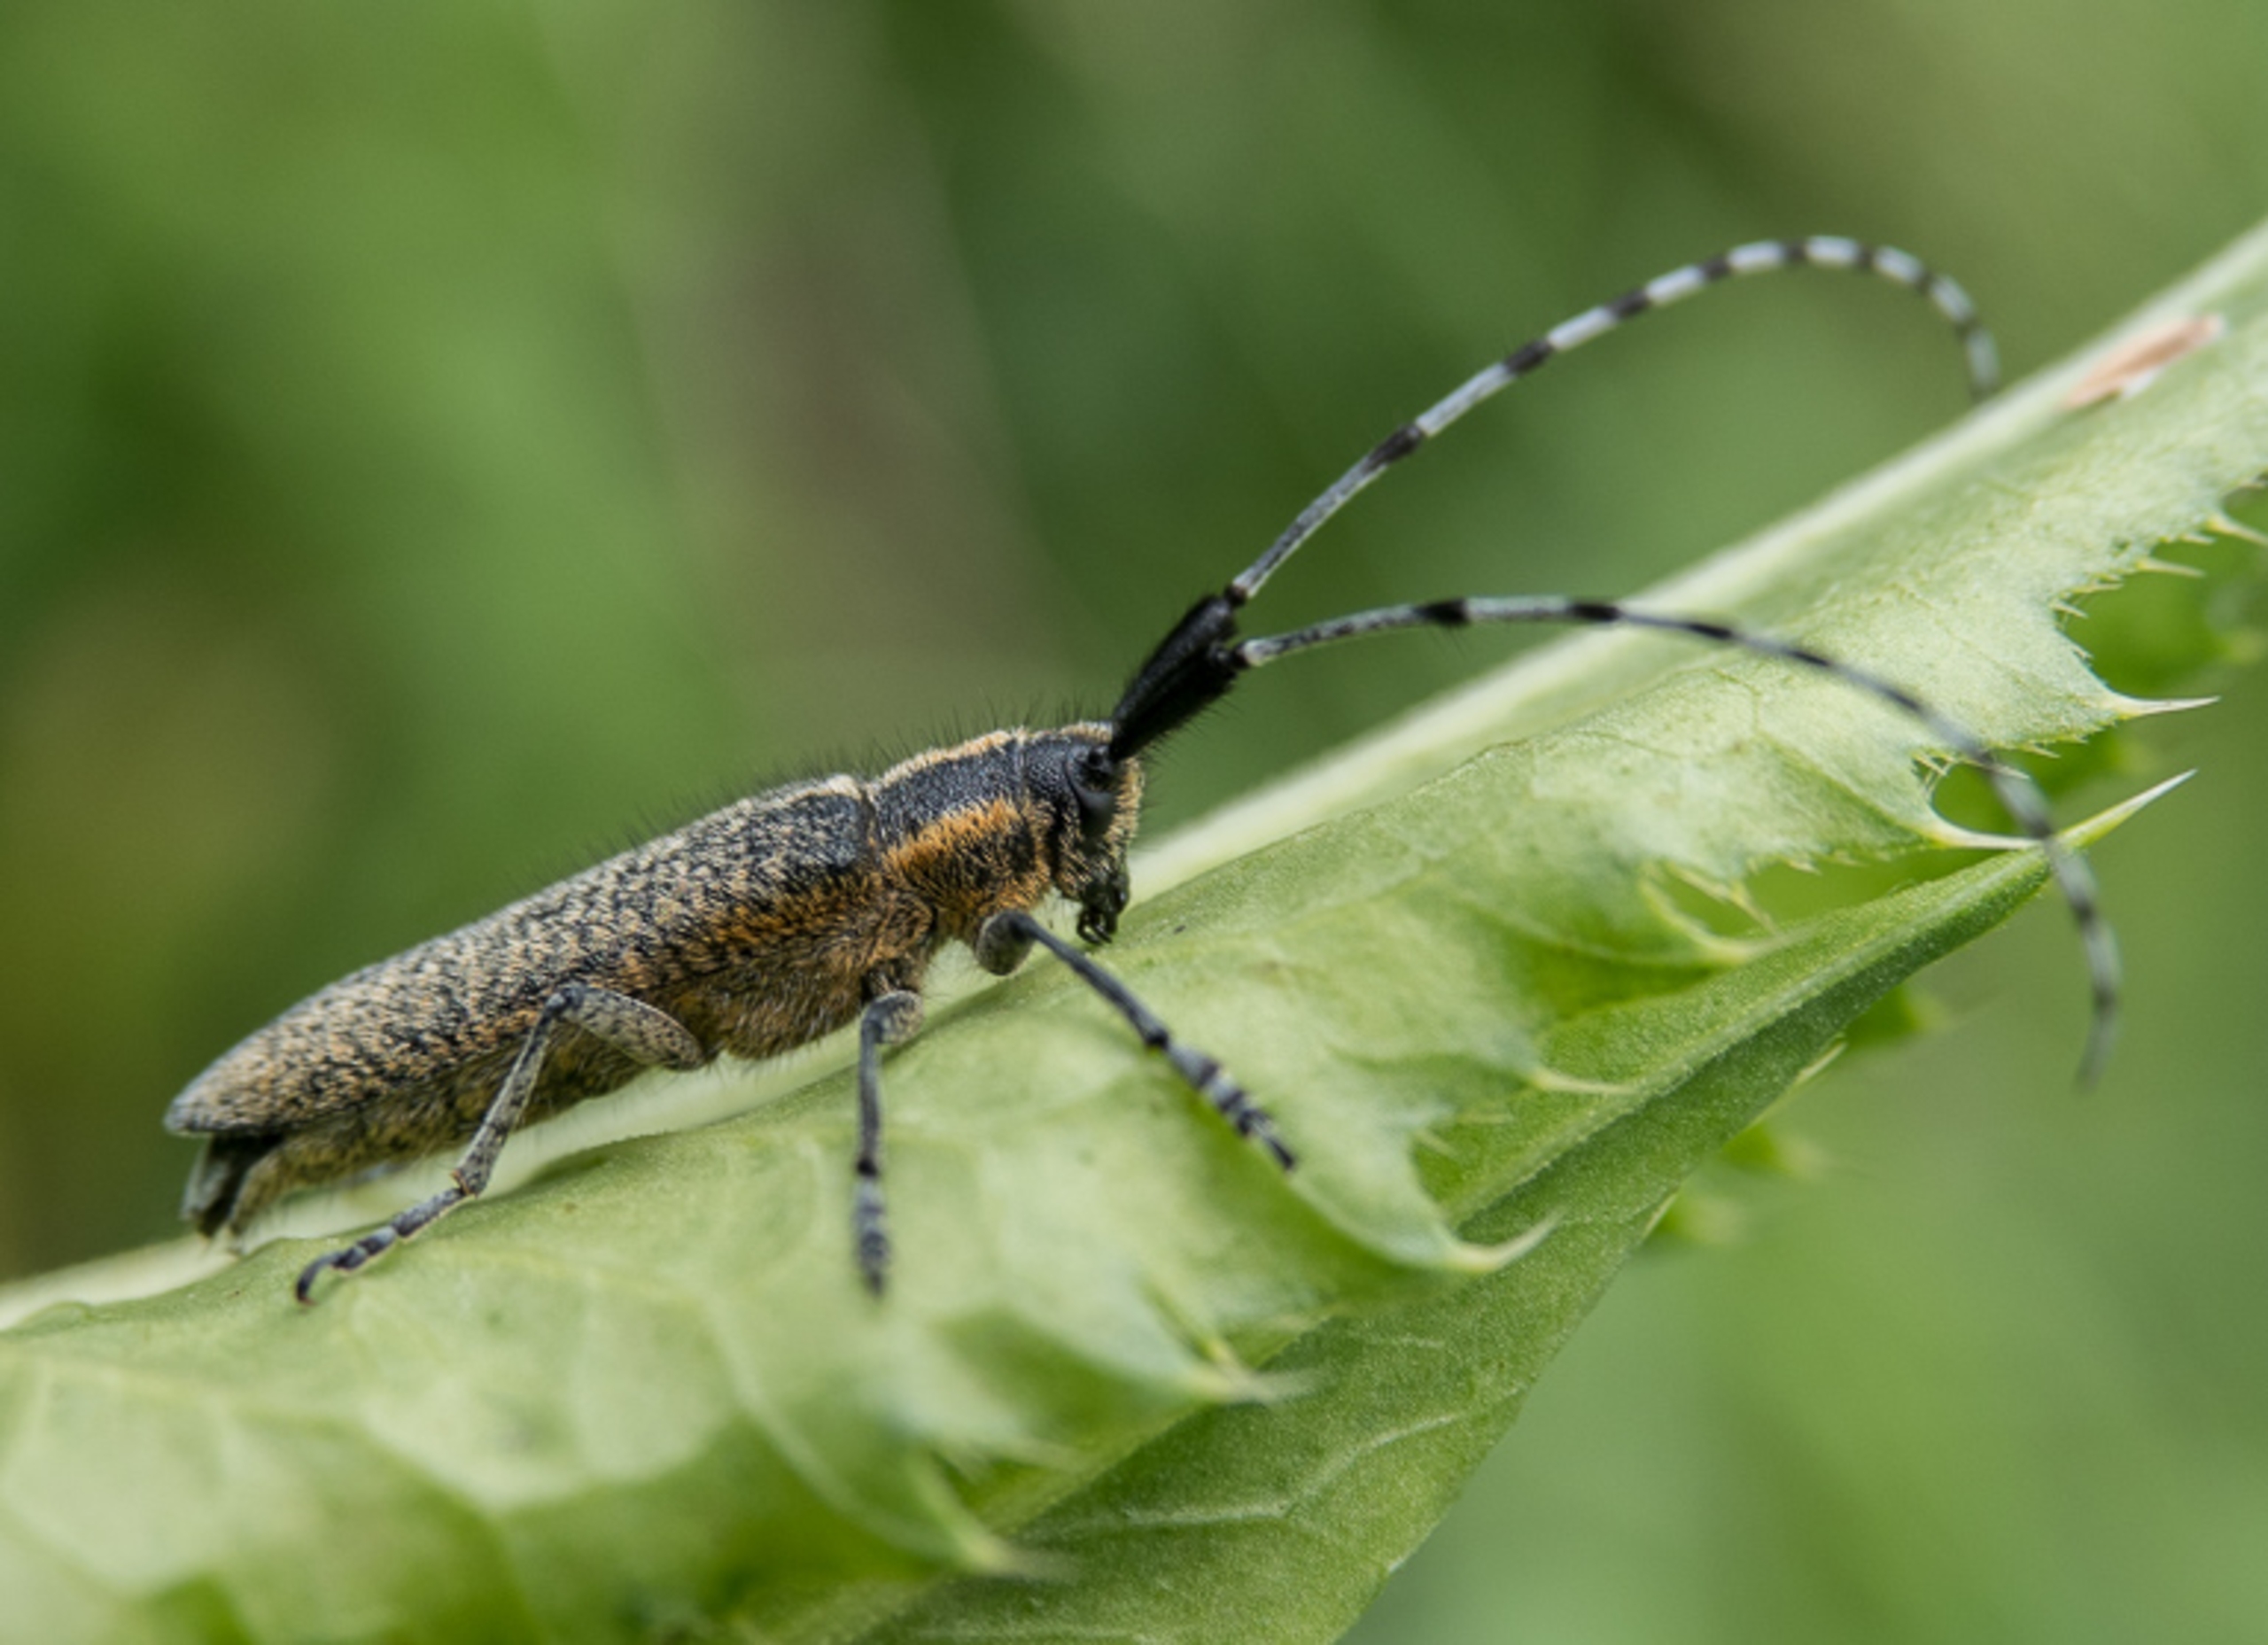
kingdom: Animalia
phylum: Arthropoda
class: Insecta
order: Coleoptera
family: Cerambycidae
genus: Agapanthia
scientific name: Agapanthia villosoviridescens
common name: Tidselbuk
